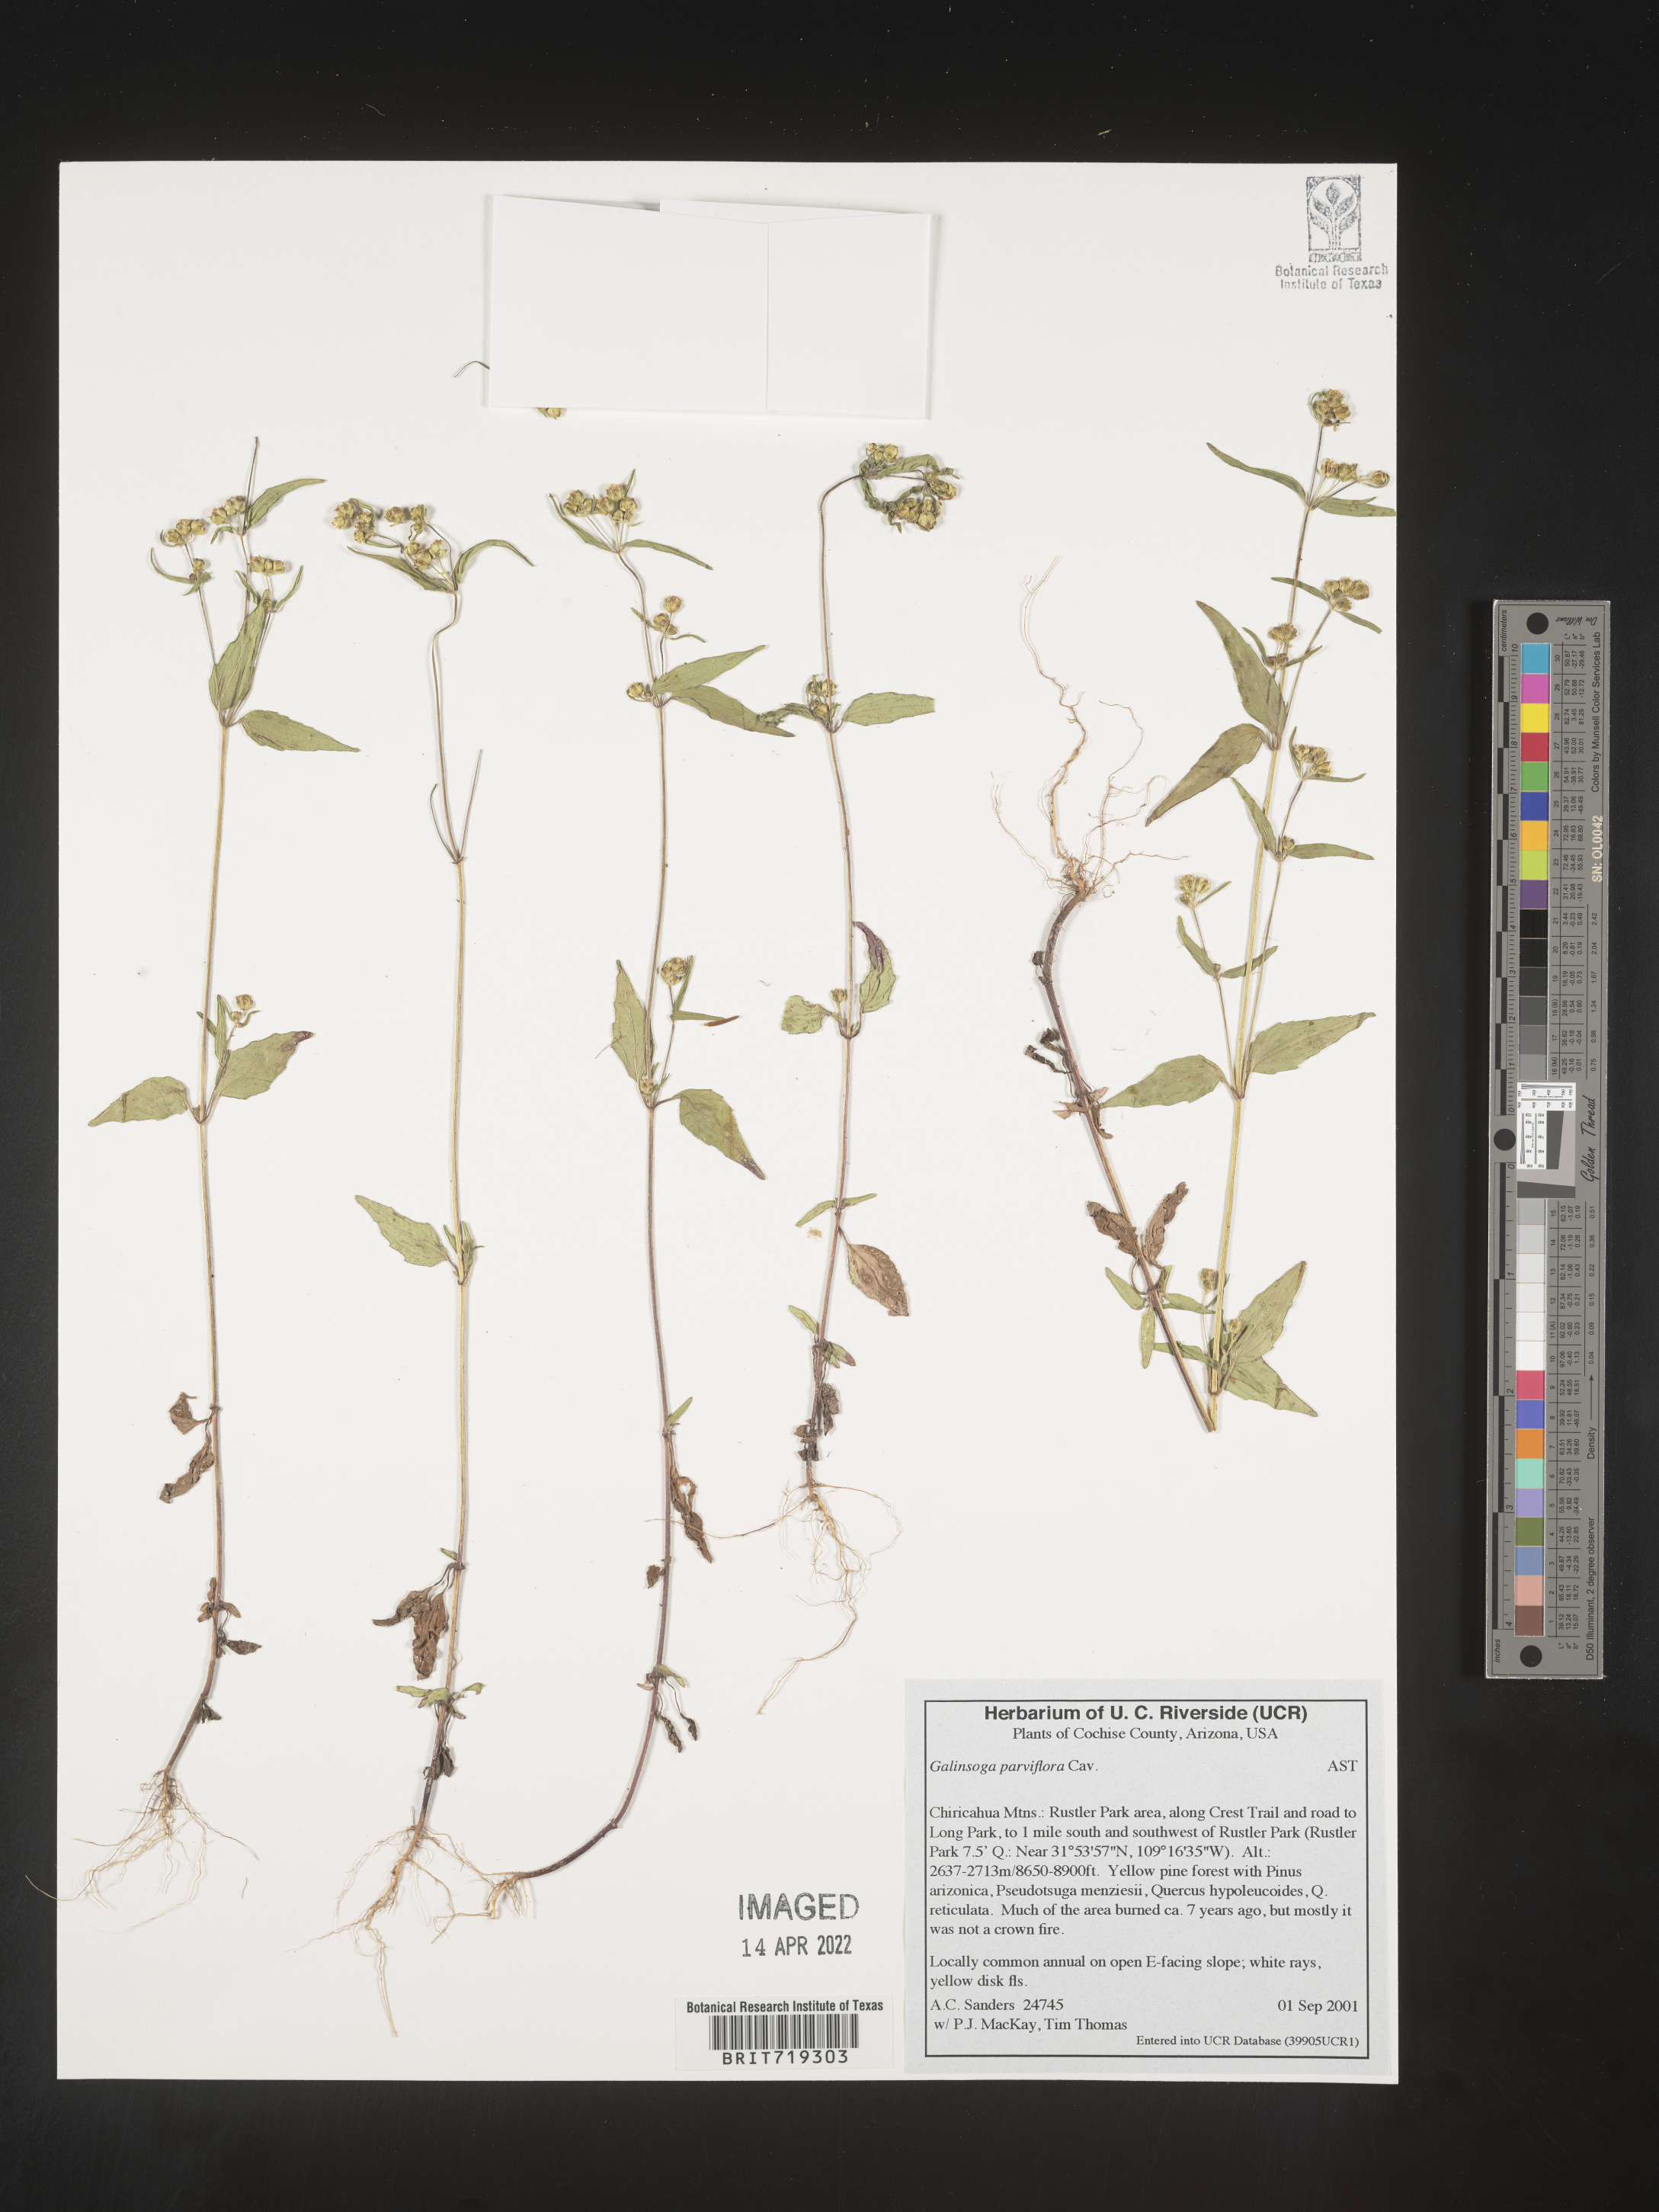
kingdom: Plantae
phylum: Tracheophyta
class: Magnoliopsida
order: Asterales
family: Asteraceae
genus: Galinsoga
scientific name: Galinsoga parviflora
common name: Gallant soldier
